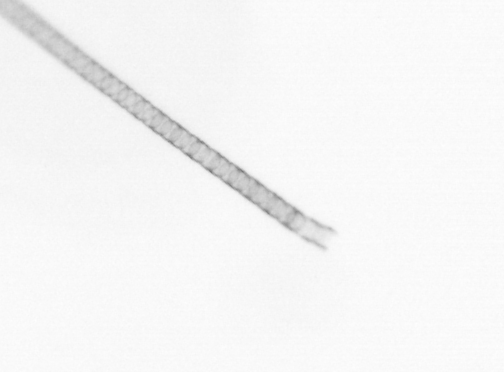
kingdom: Chromista
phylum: Ochrophyta
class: Bacillariophyceae
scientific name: Bacillariophyceae
